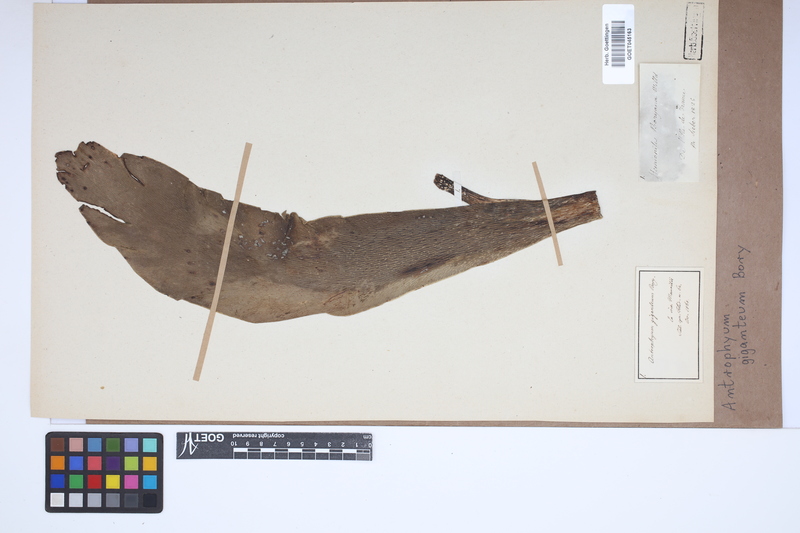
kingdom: Plantae
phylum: Tracheophyta
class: Polypodiopsida
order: Polypodiales
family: Pteridaceae
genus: Antrophyopsis
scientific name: Antrophyopsis gigantea
